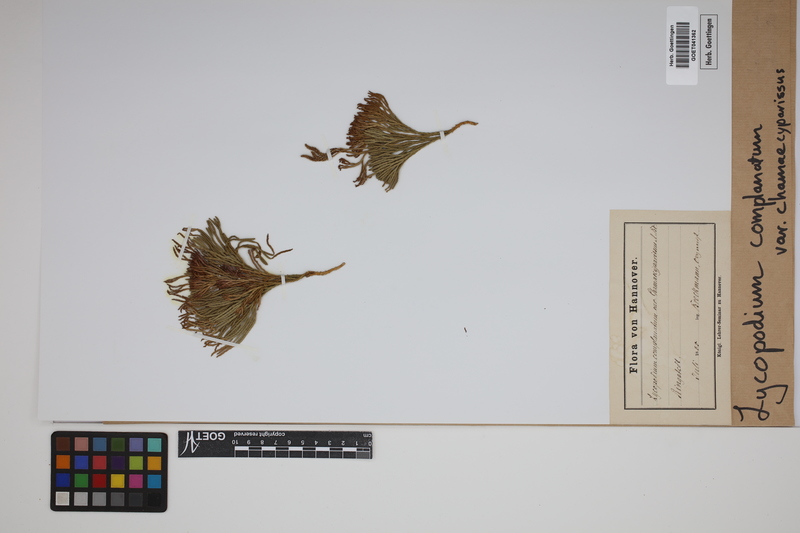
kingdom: Plantae
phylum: Tracheophyta
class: Lycopodiopsida
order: Lycopodiales
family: Lycopodiaceae
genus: Diphasiastrum
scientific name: Diphasiastrum tristachyum
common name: Blue ground-cedar
